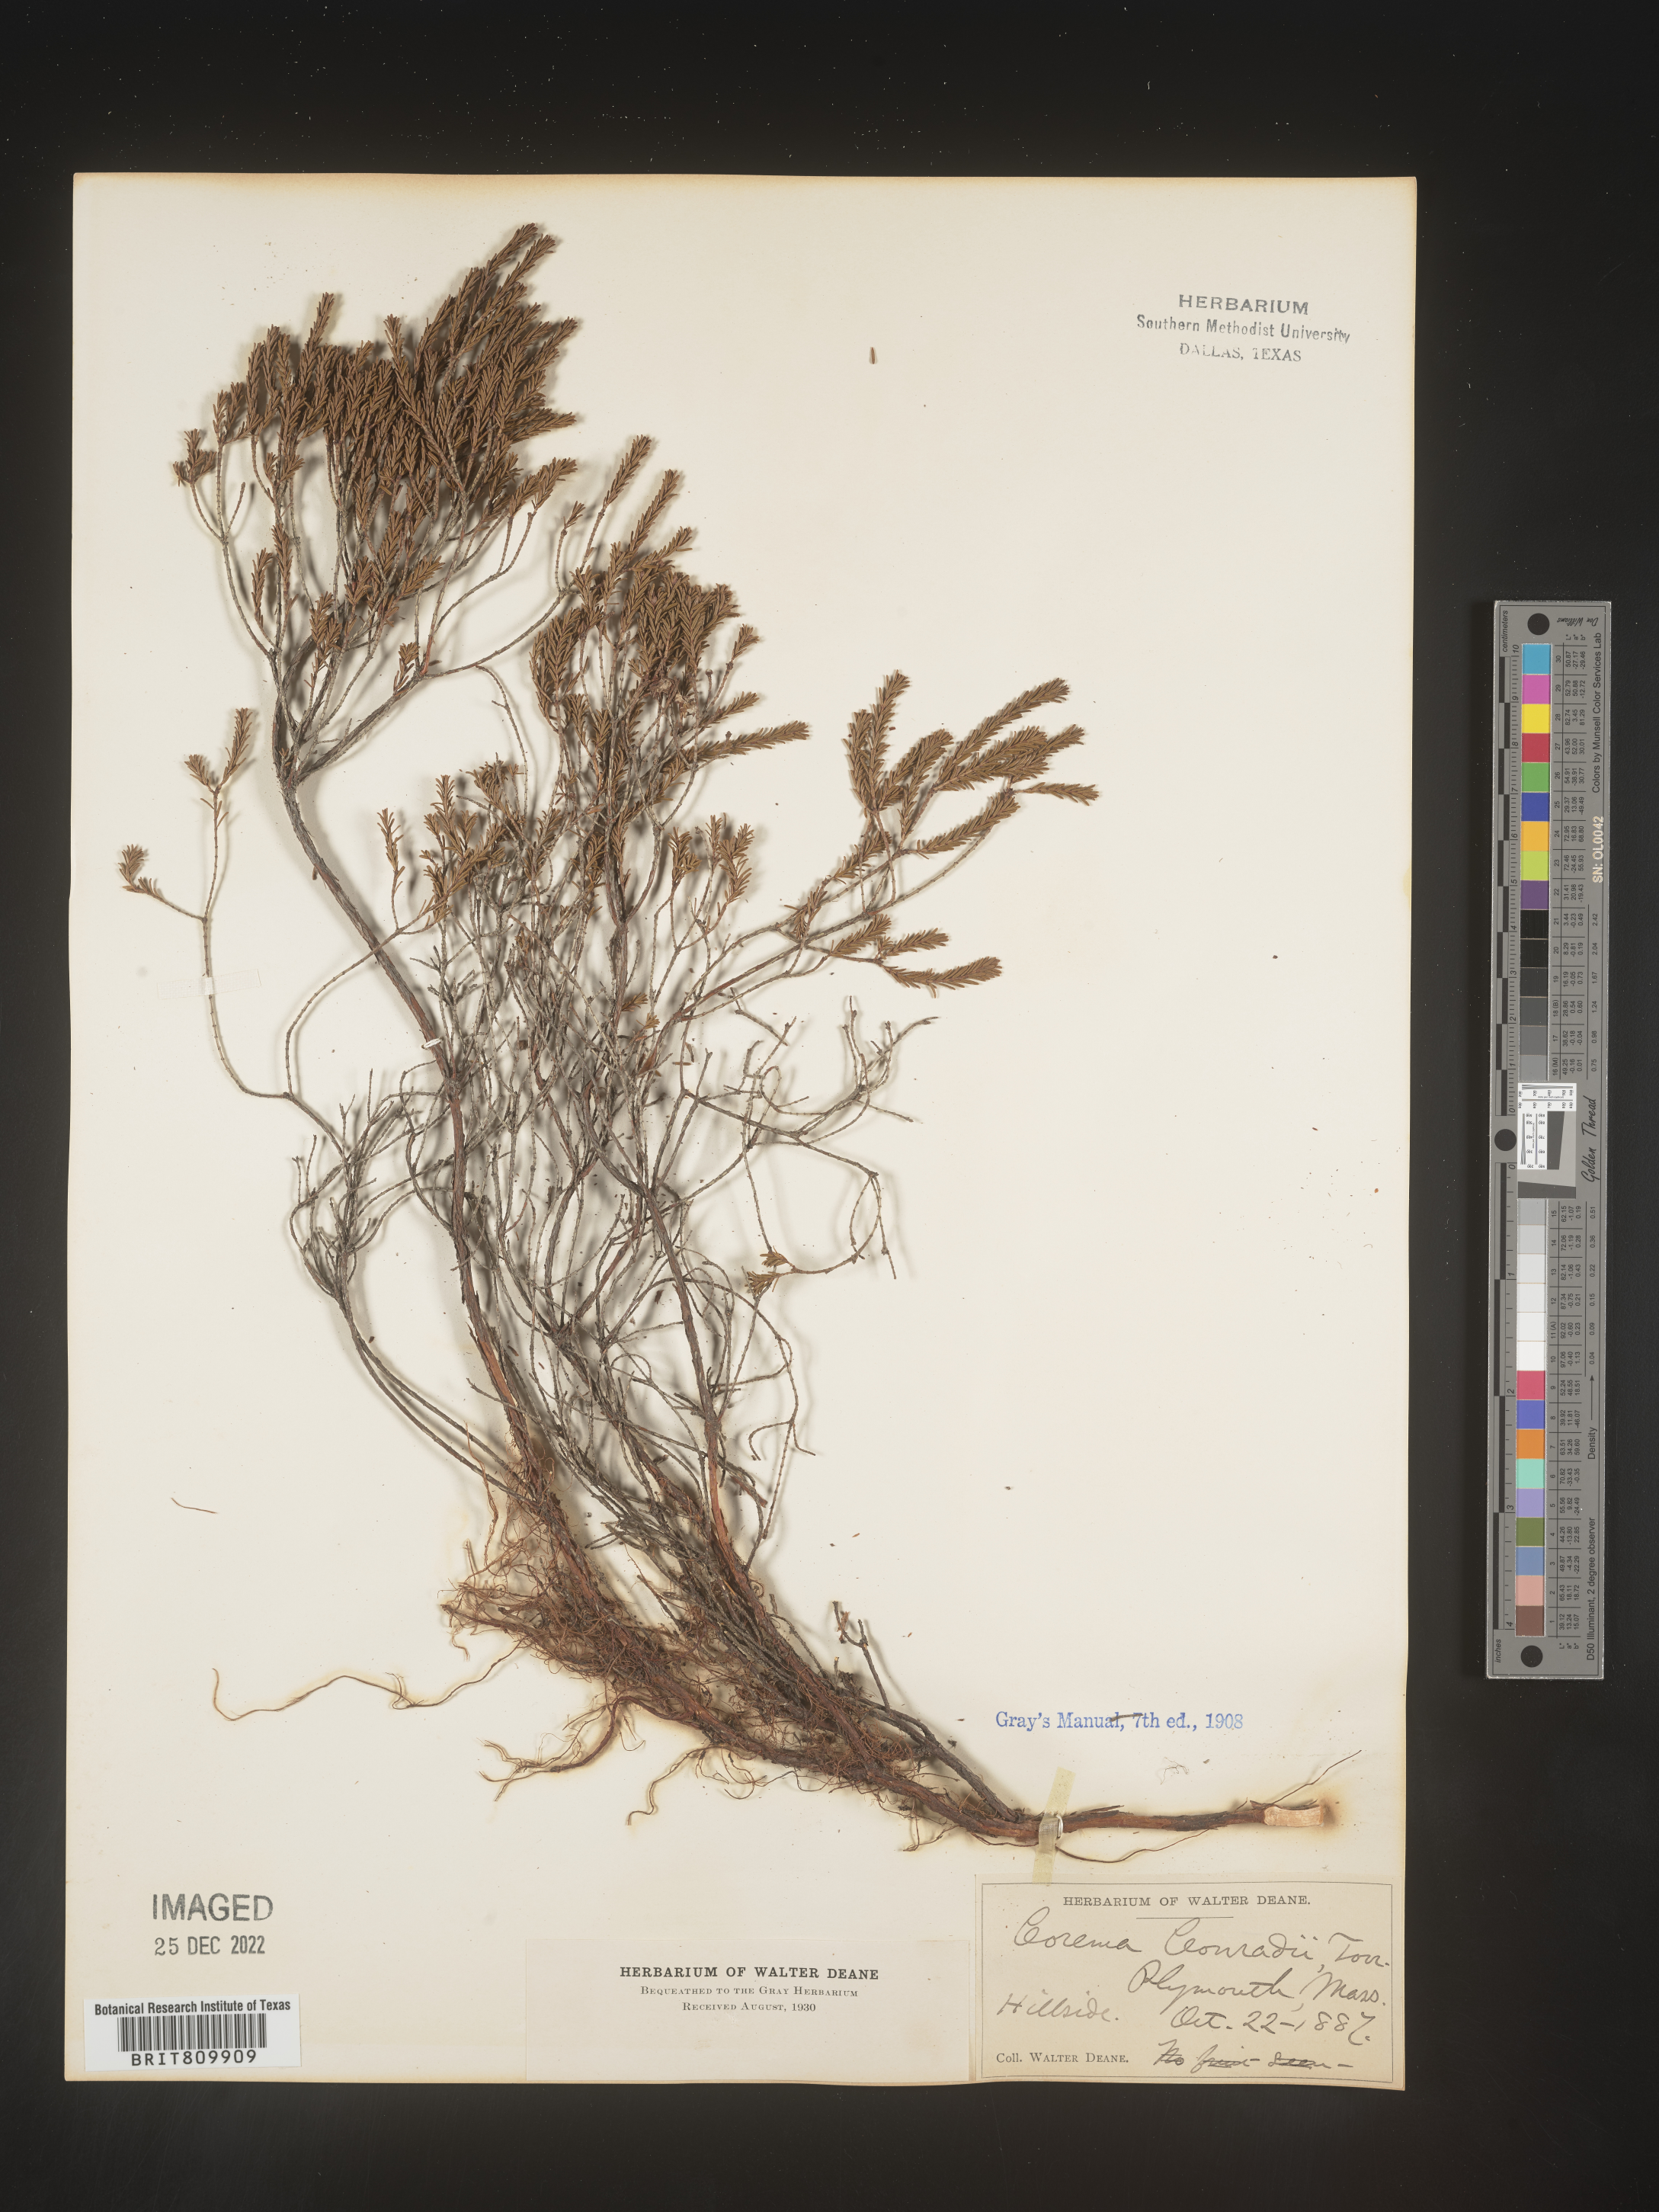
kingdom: Plantae
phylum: Tracheophyta
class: Magnoliopsida
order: Ericales
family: Ericaceae
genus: Corema
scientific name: Corema
